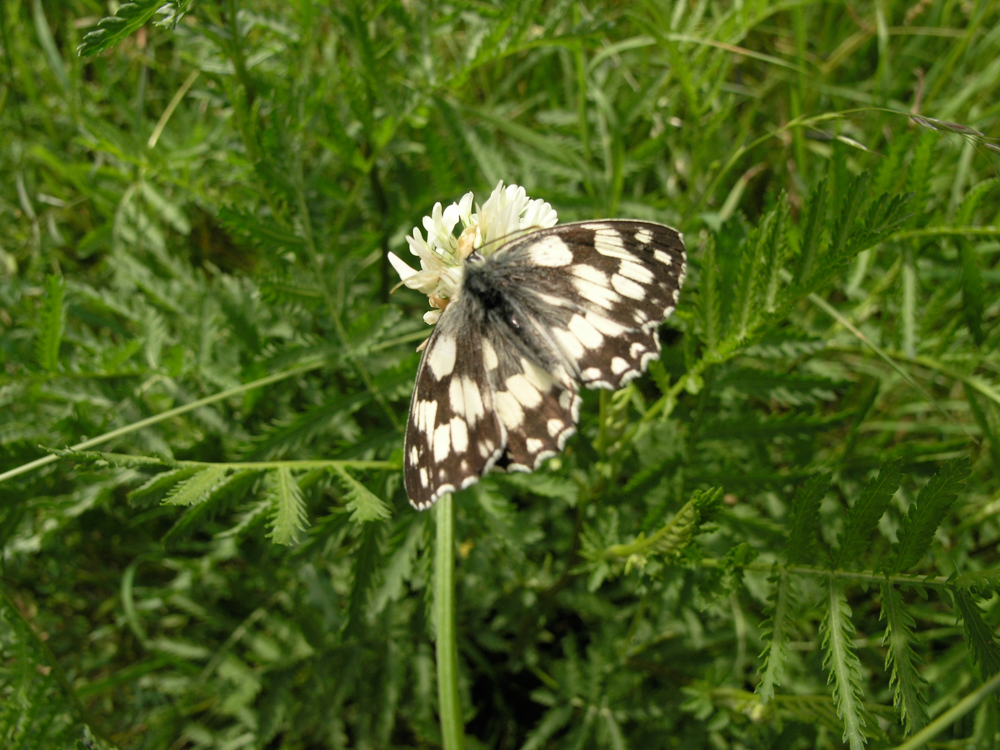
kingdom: Animalia
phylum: Arthropoda
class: Insecta
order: Lepidoptera
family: Nymphalidae
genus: Melanargia
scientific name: Melanargia galathea
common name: Marbled white
